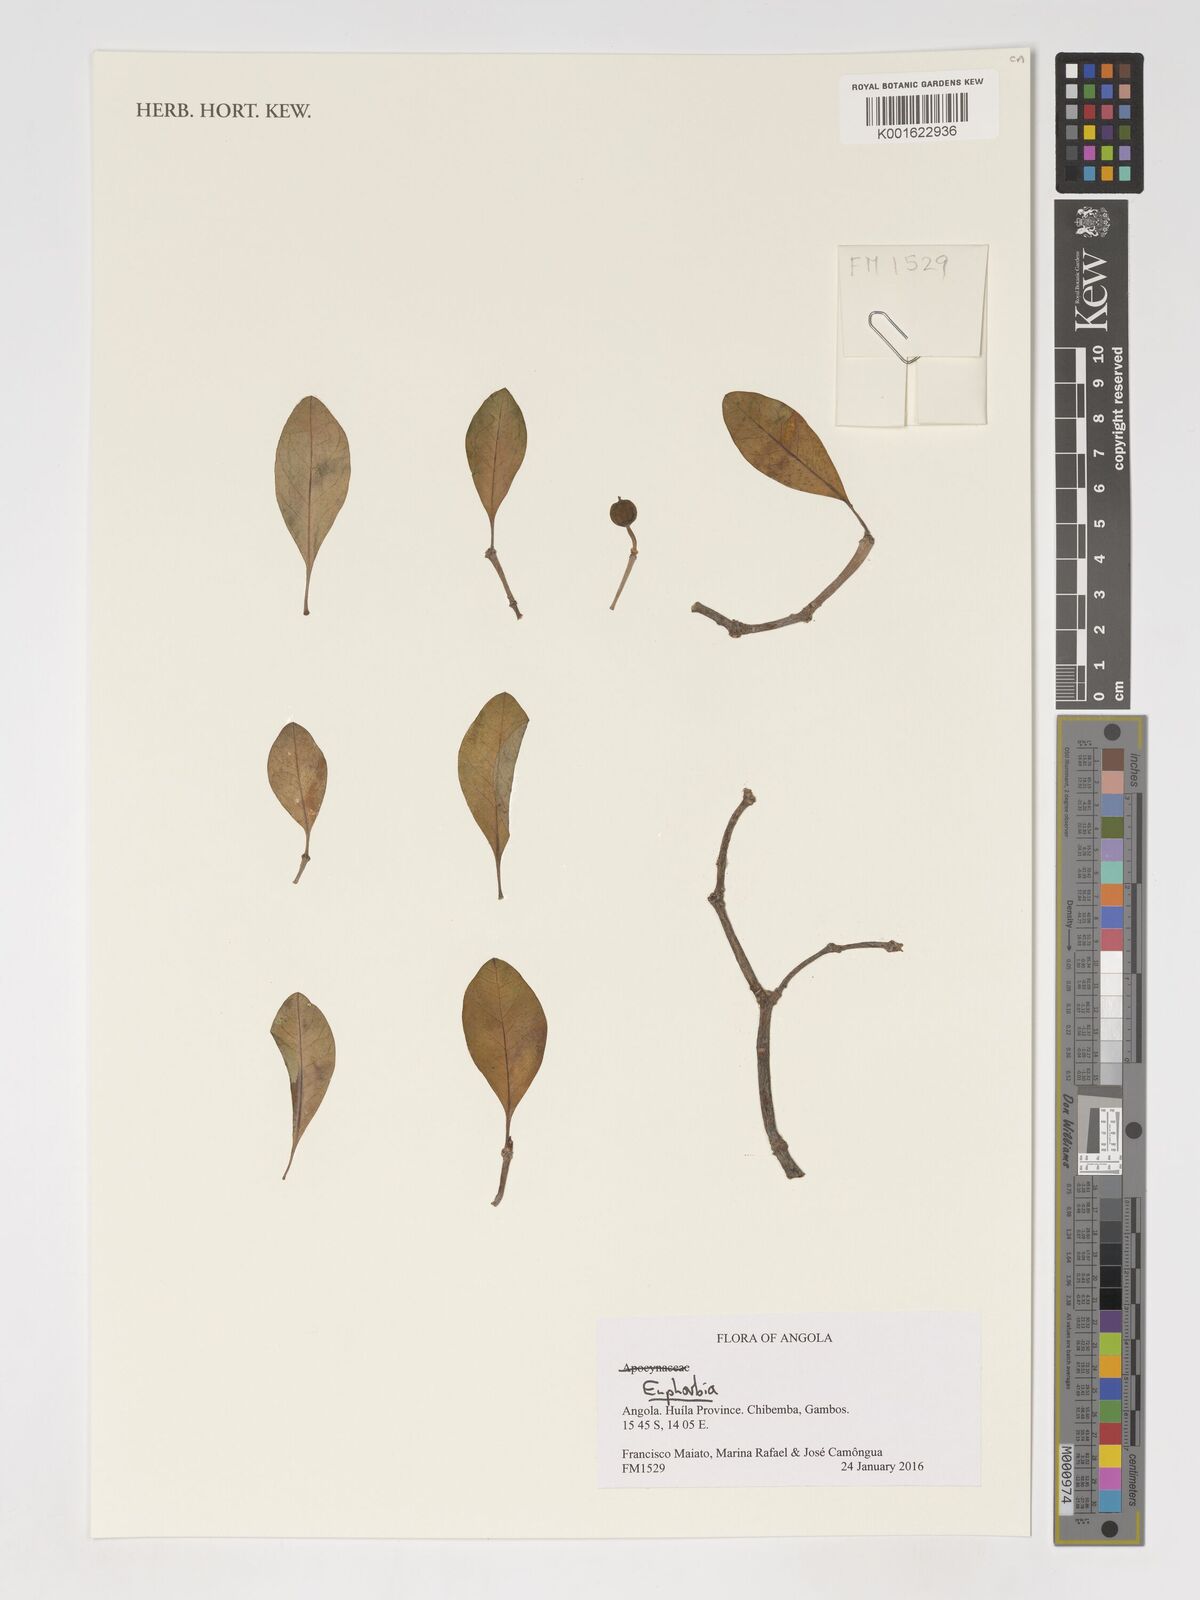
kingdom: Plantae
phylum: Tracheophyta
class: Magnoliopsida
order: Malpighiales
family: Euphorbiaceae
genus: Euphorbia
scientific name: Euphorbia
